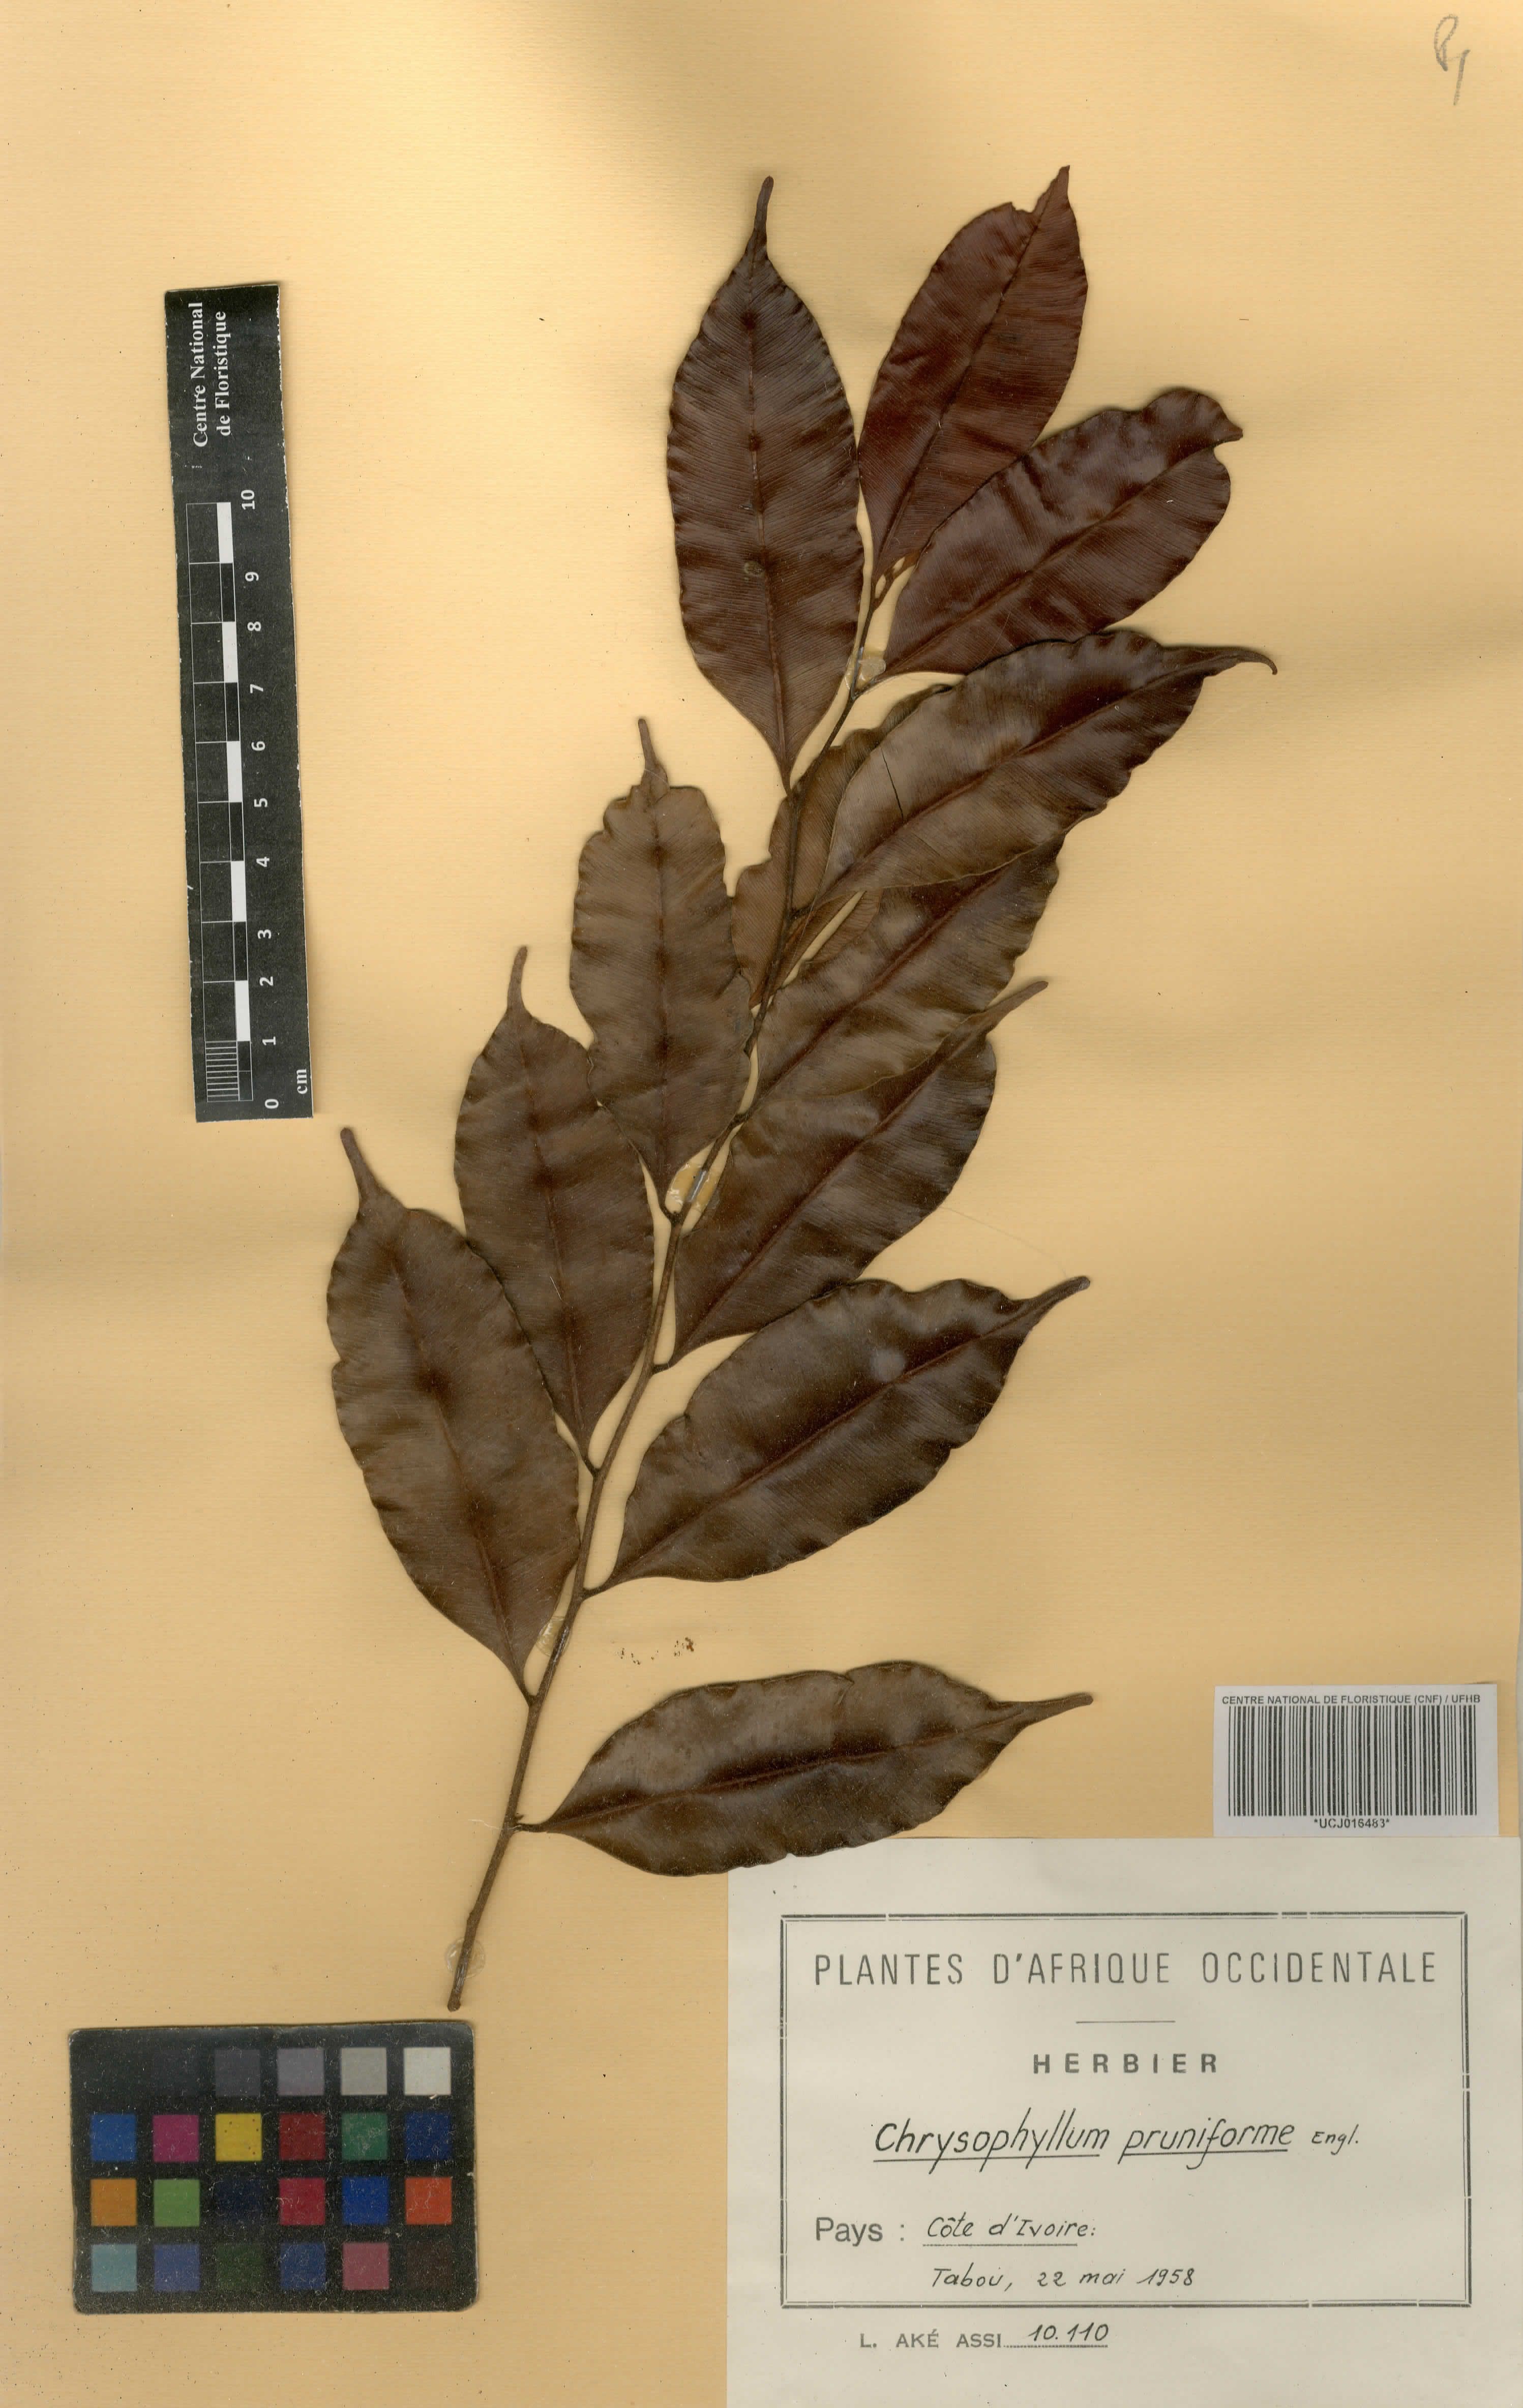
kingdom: Plantae
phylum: Tracheophyta
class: Magnoliopsida
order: Ericales
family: Sapotaceae
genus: Donella
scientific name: Donella pruniformis
